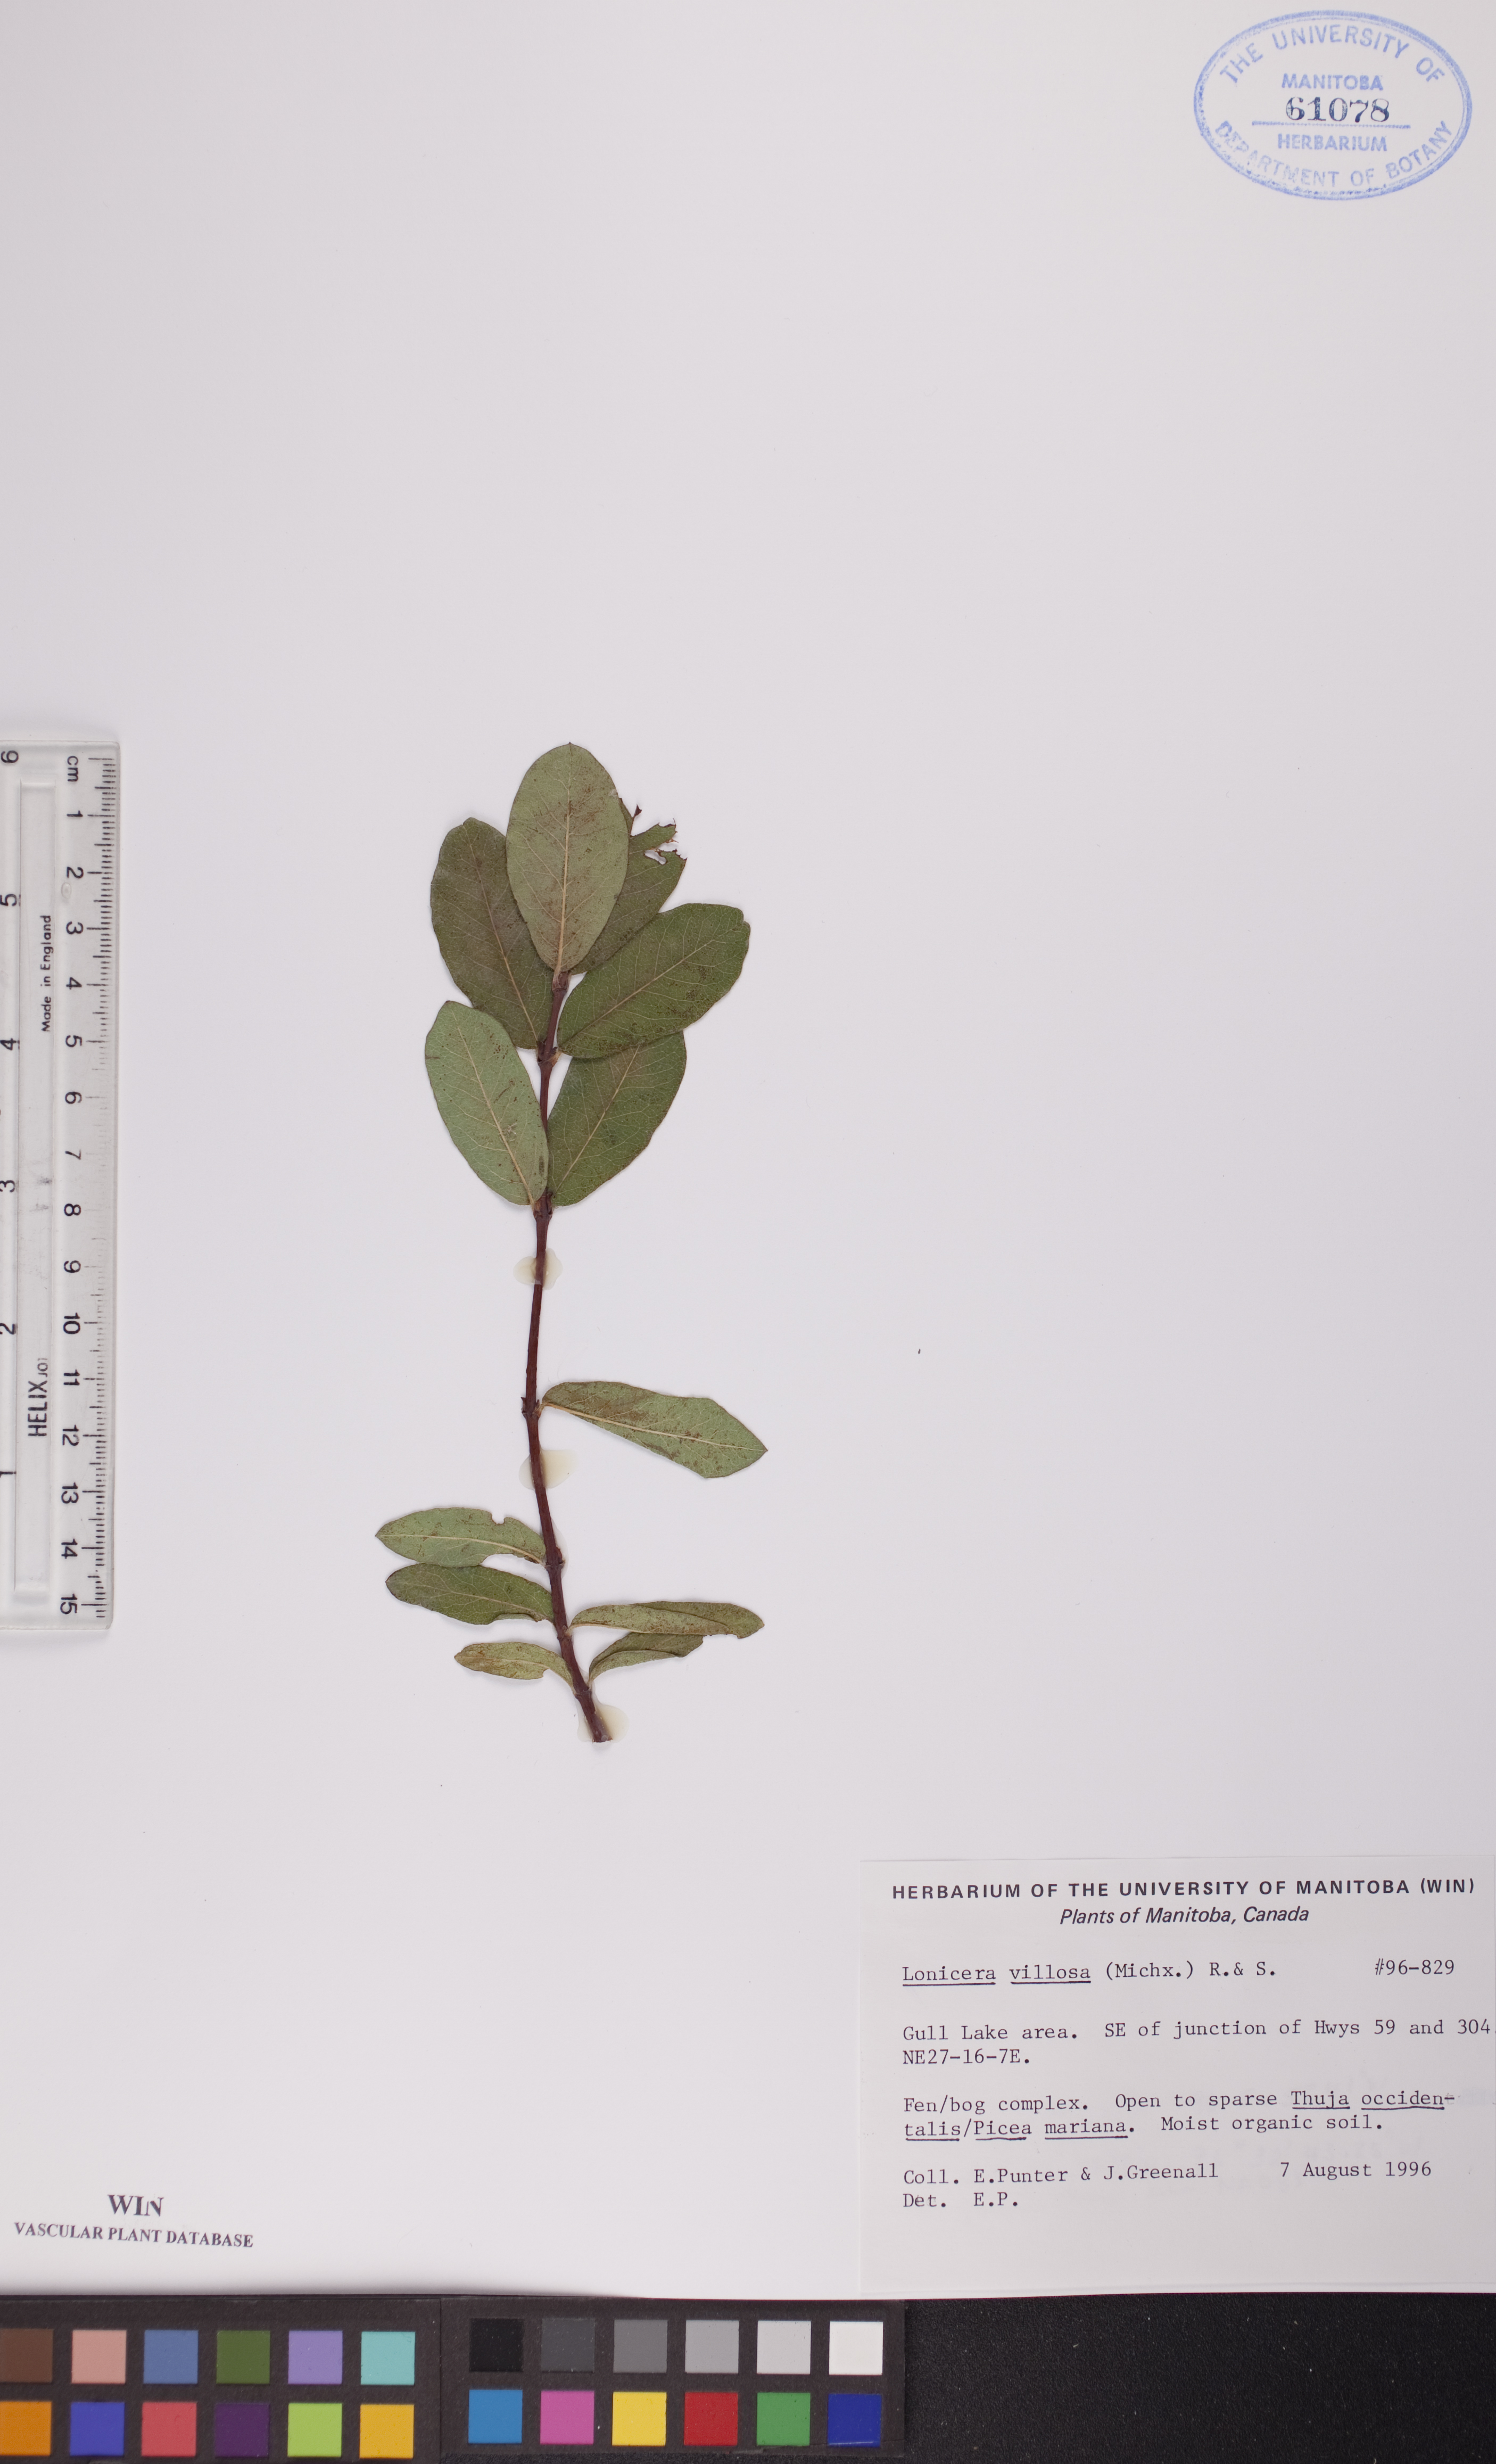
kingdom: Plantae
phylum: Tracheophyta
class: Magnoliopsida
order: Dipsacales
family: Caprifoliaceae
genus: Lonicera
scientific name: Lonicera villosa
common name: Mountain fly-honeysuckle
